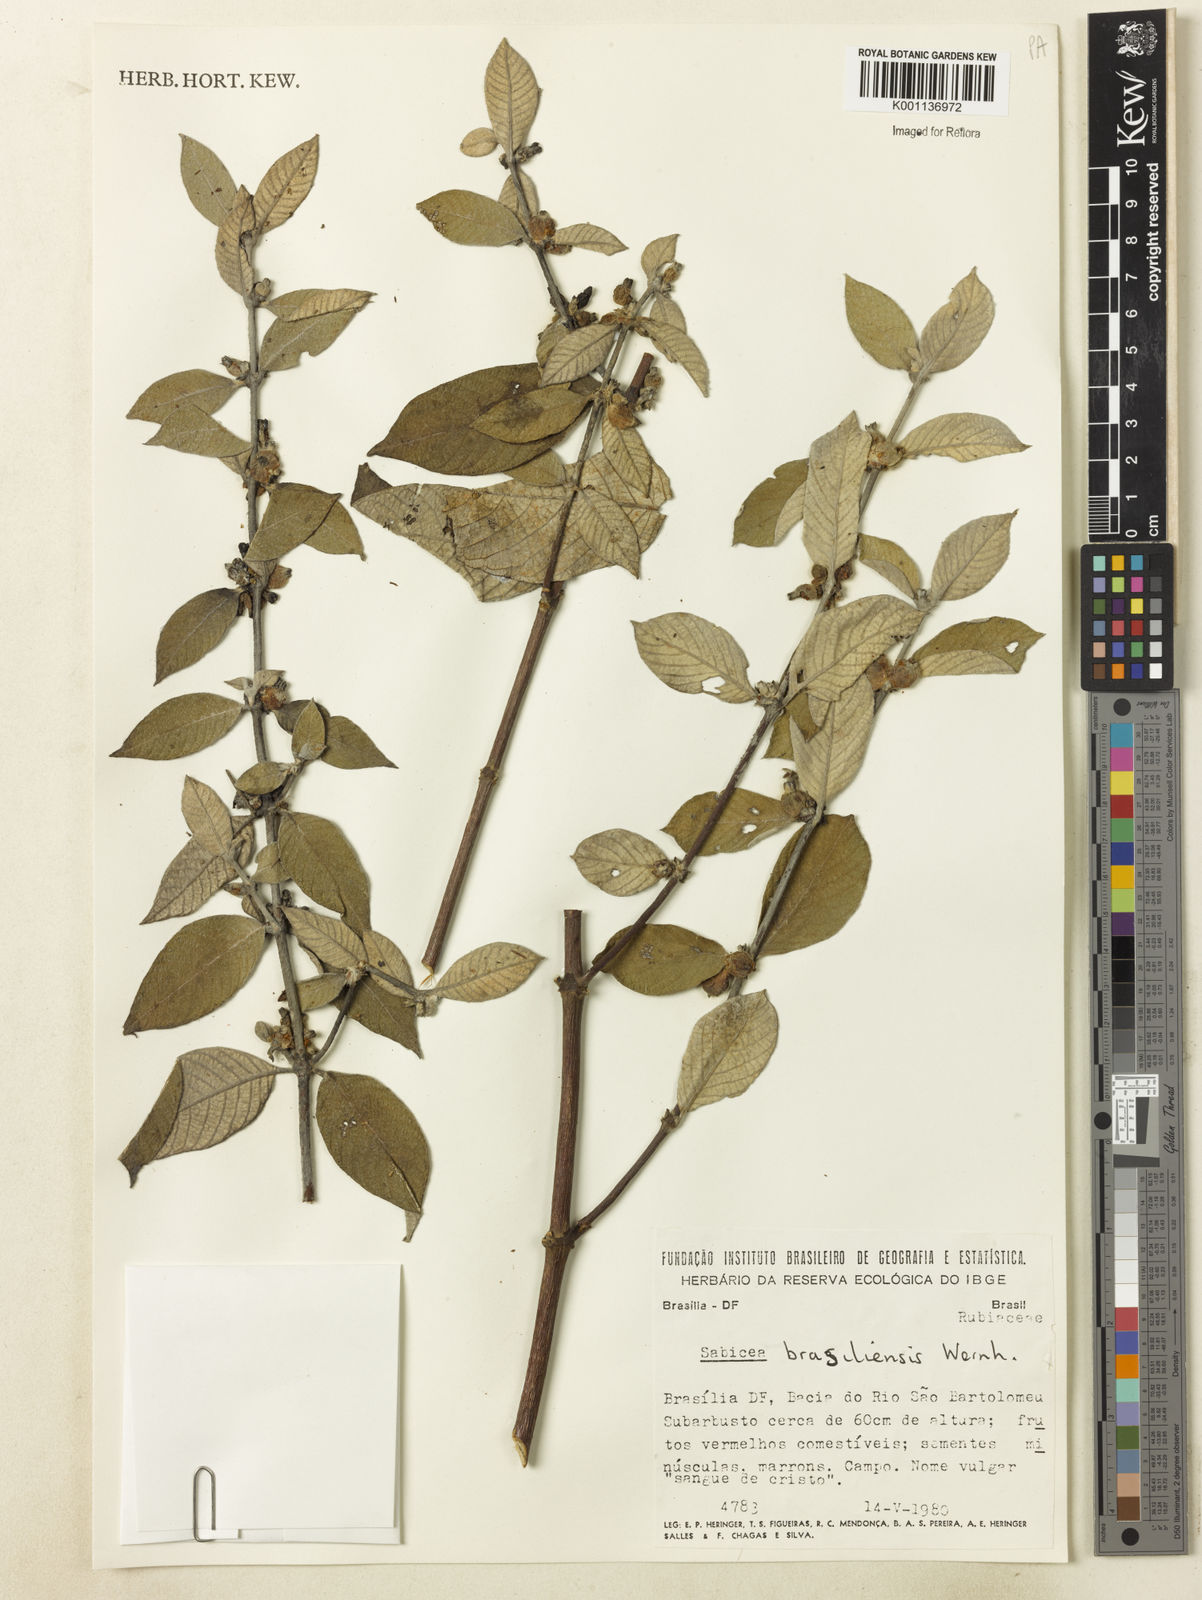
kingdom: Plantae
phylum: Tracheophyta
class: Magnoliopsida
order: Gentianales
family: Rubiaceae
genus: Sabicea
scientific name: Sabicea brasiliensis
